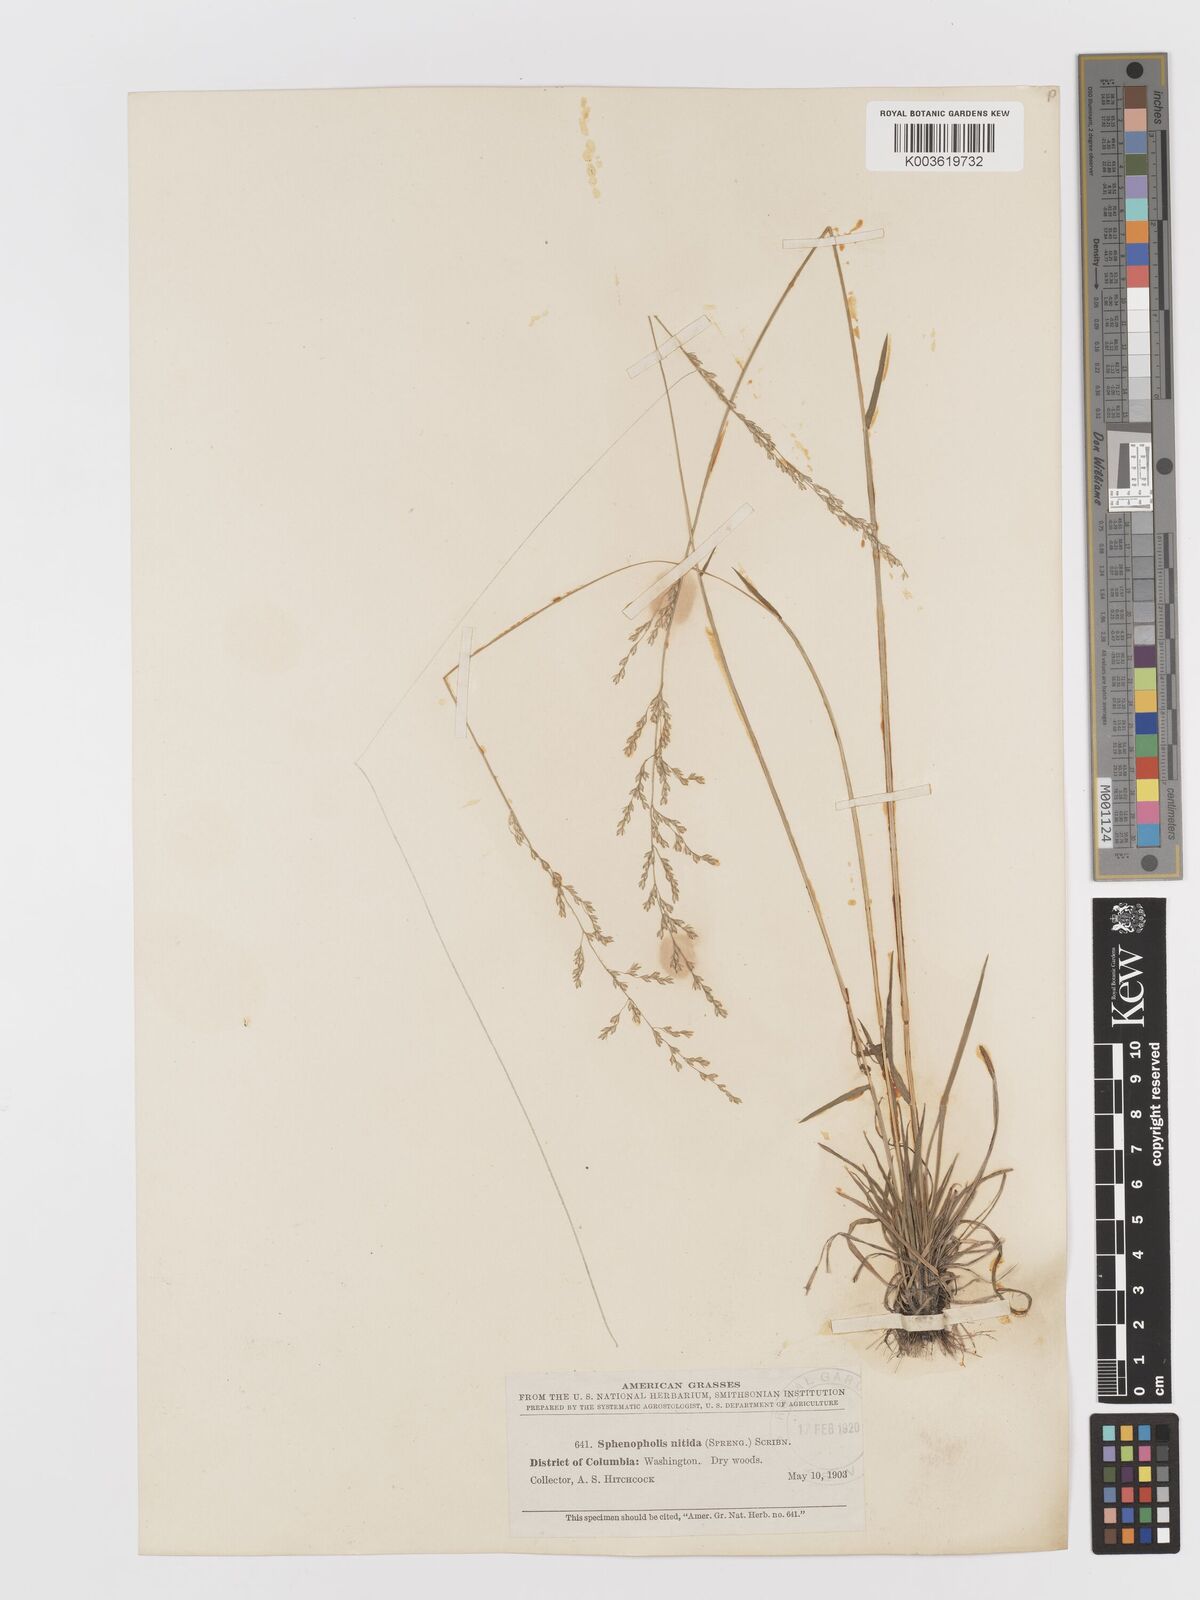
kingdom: Plantae
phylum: Tracheophyta
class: Liliopsida
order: Poales
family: Poaceae
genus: Sphenopholis
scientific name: Sphenopholis nitida
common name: Shiny wedgegrass
